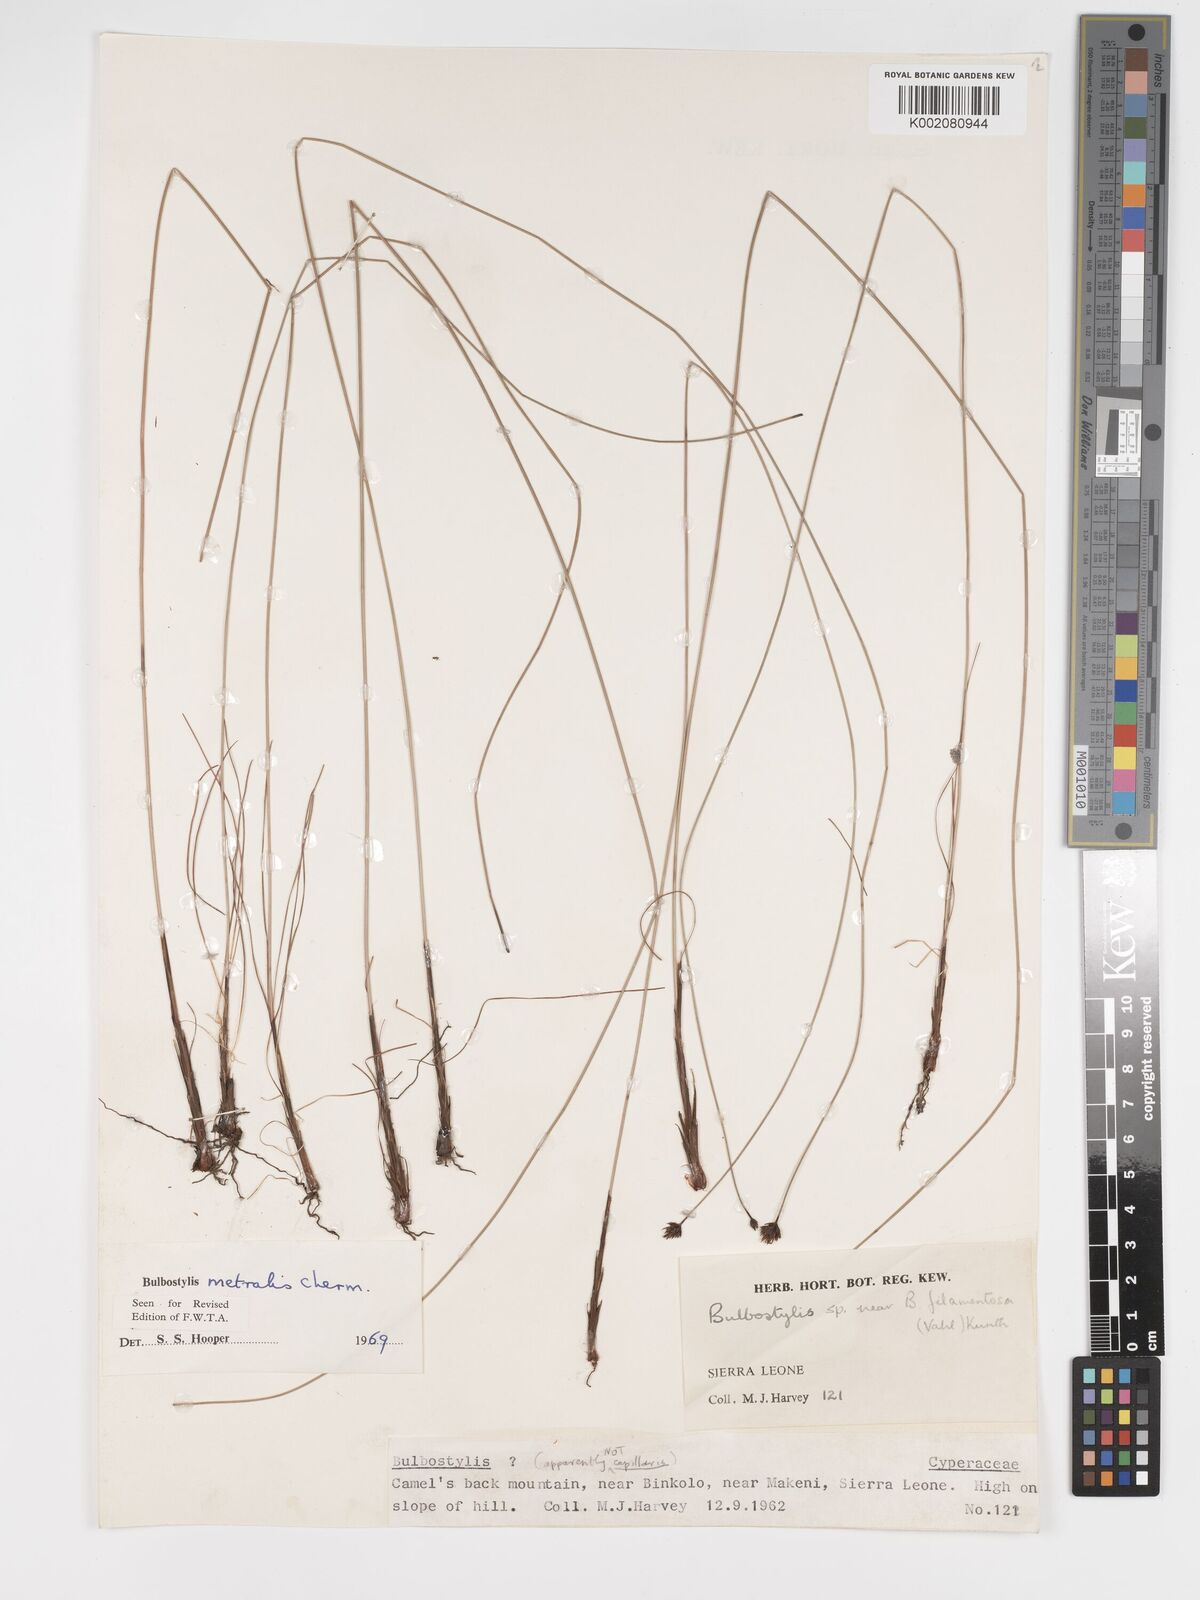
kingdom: Plantae
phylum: Tracheophyta
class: Liliopsida
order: Poales
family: Cyperaceae
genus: Bulbostylis
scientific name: Bulbostylis filamentosa
